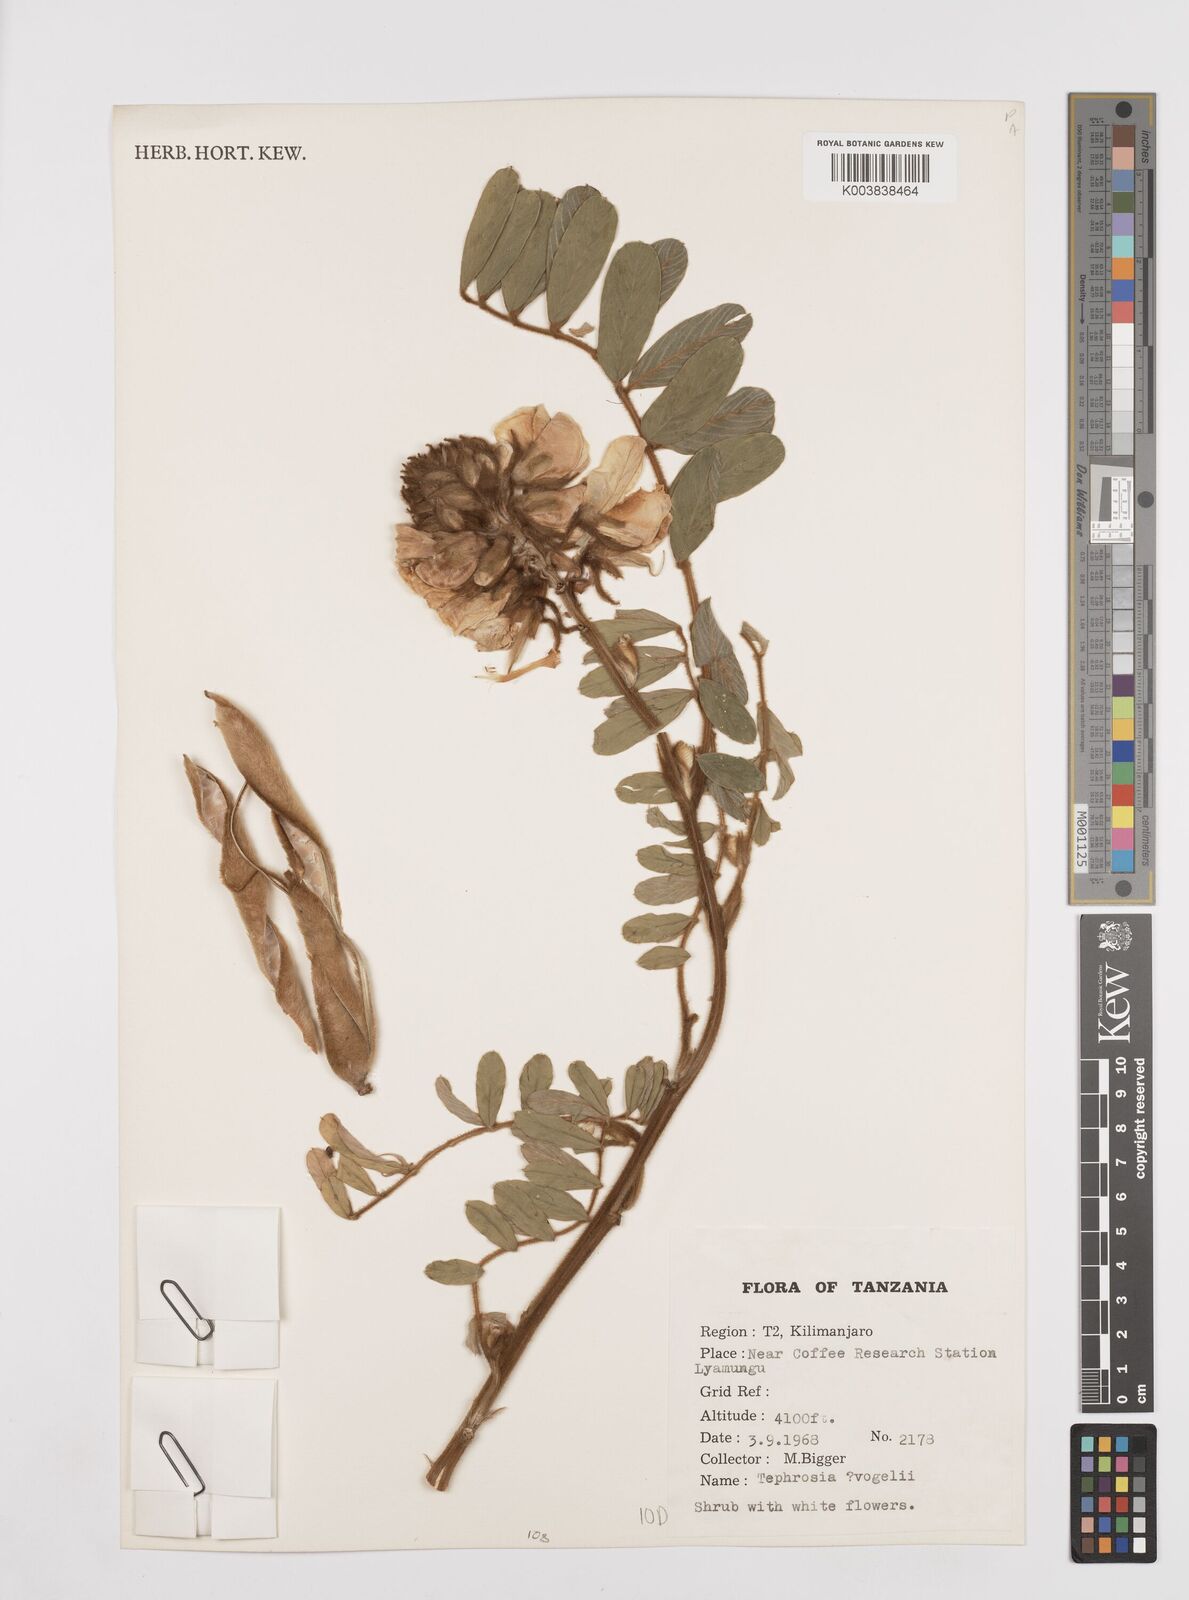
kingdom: Plantae
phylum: Tracheophyta
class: Magnoliopsida
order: Fabales
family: Fabaceae
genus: Tephrosia
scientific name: Tephrosia vogelii
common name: Vogel tephrosia
